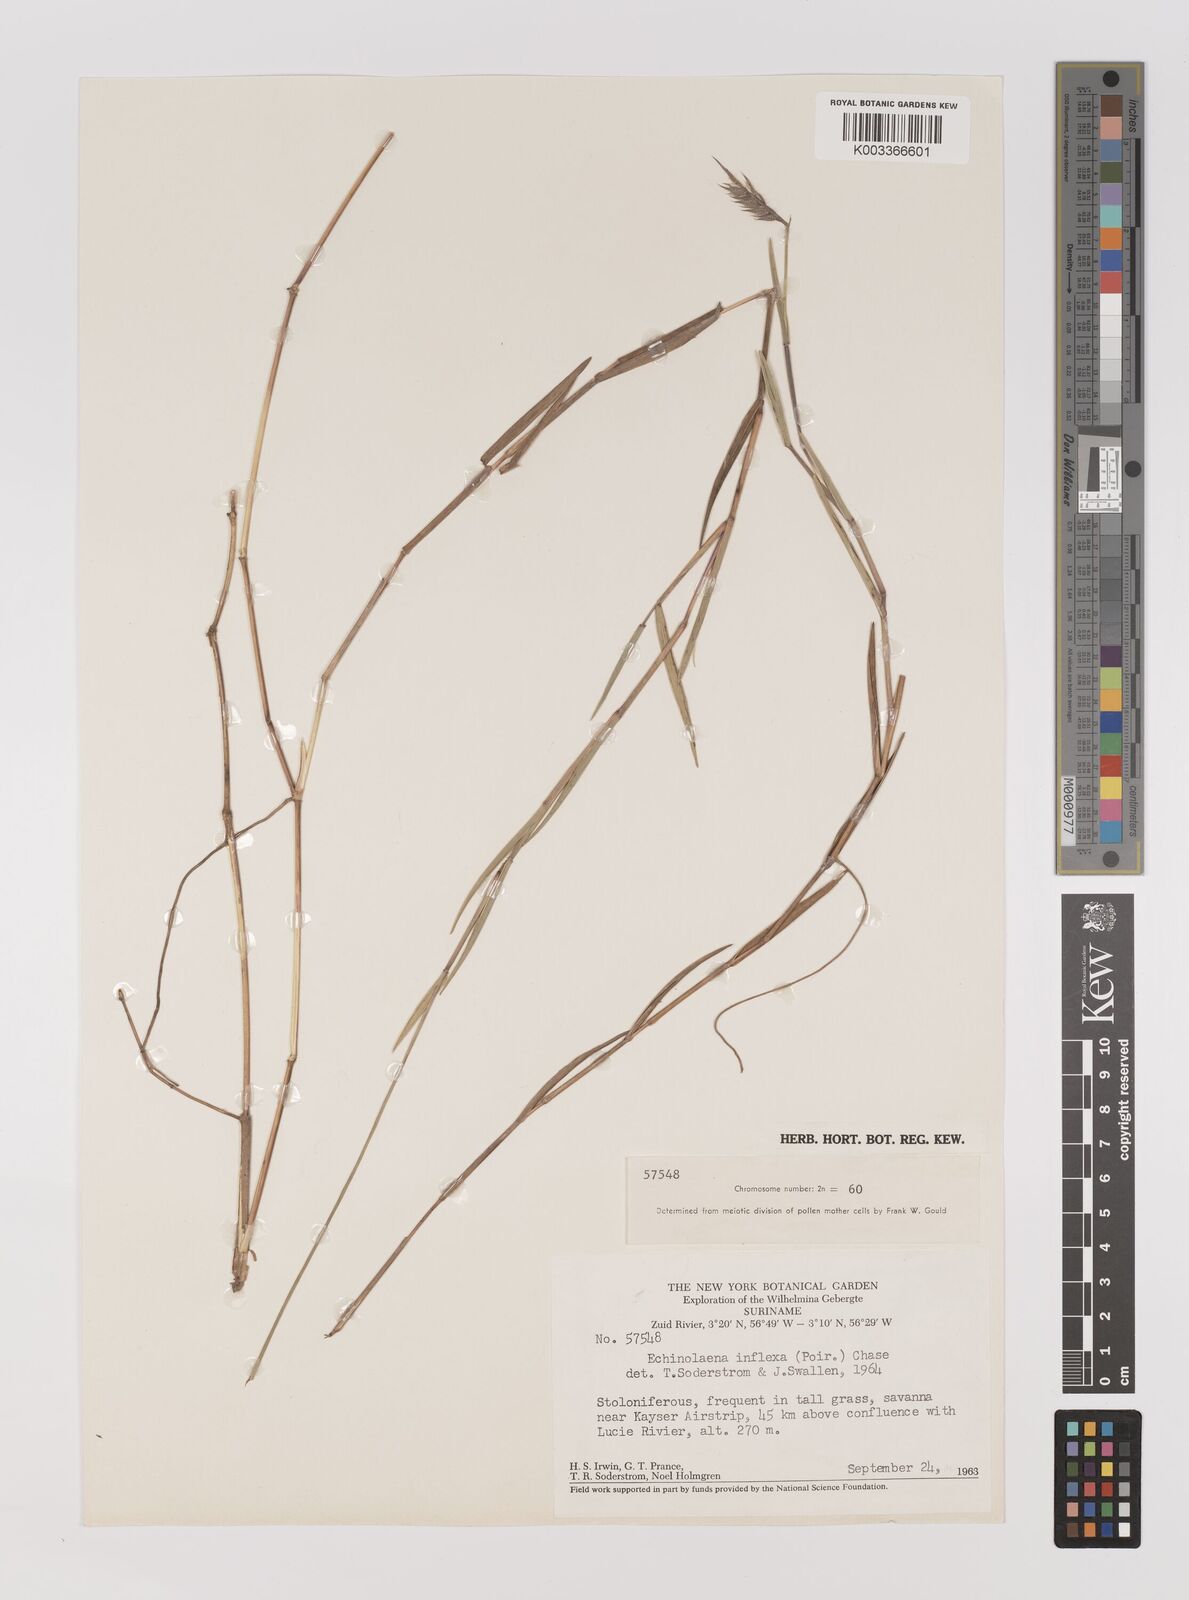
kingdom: Plantae
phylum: Tracheophyta
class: Liliopsida
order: Poales
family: Poaceae
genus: Echinolaena
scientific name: Echinolaena inflexa
